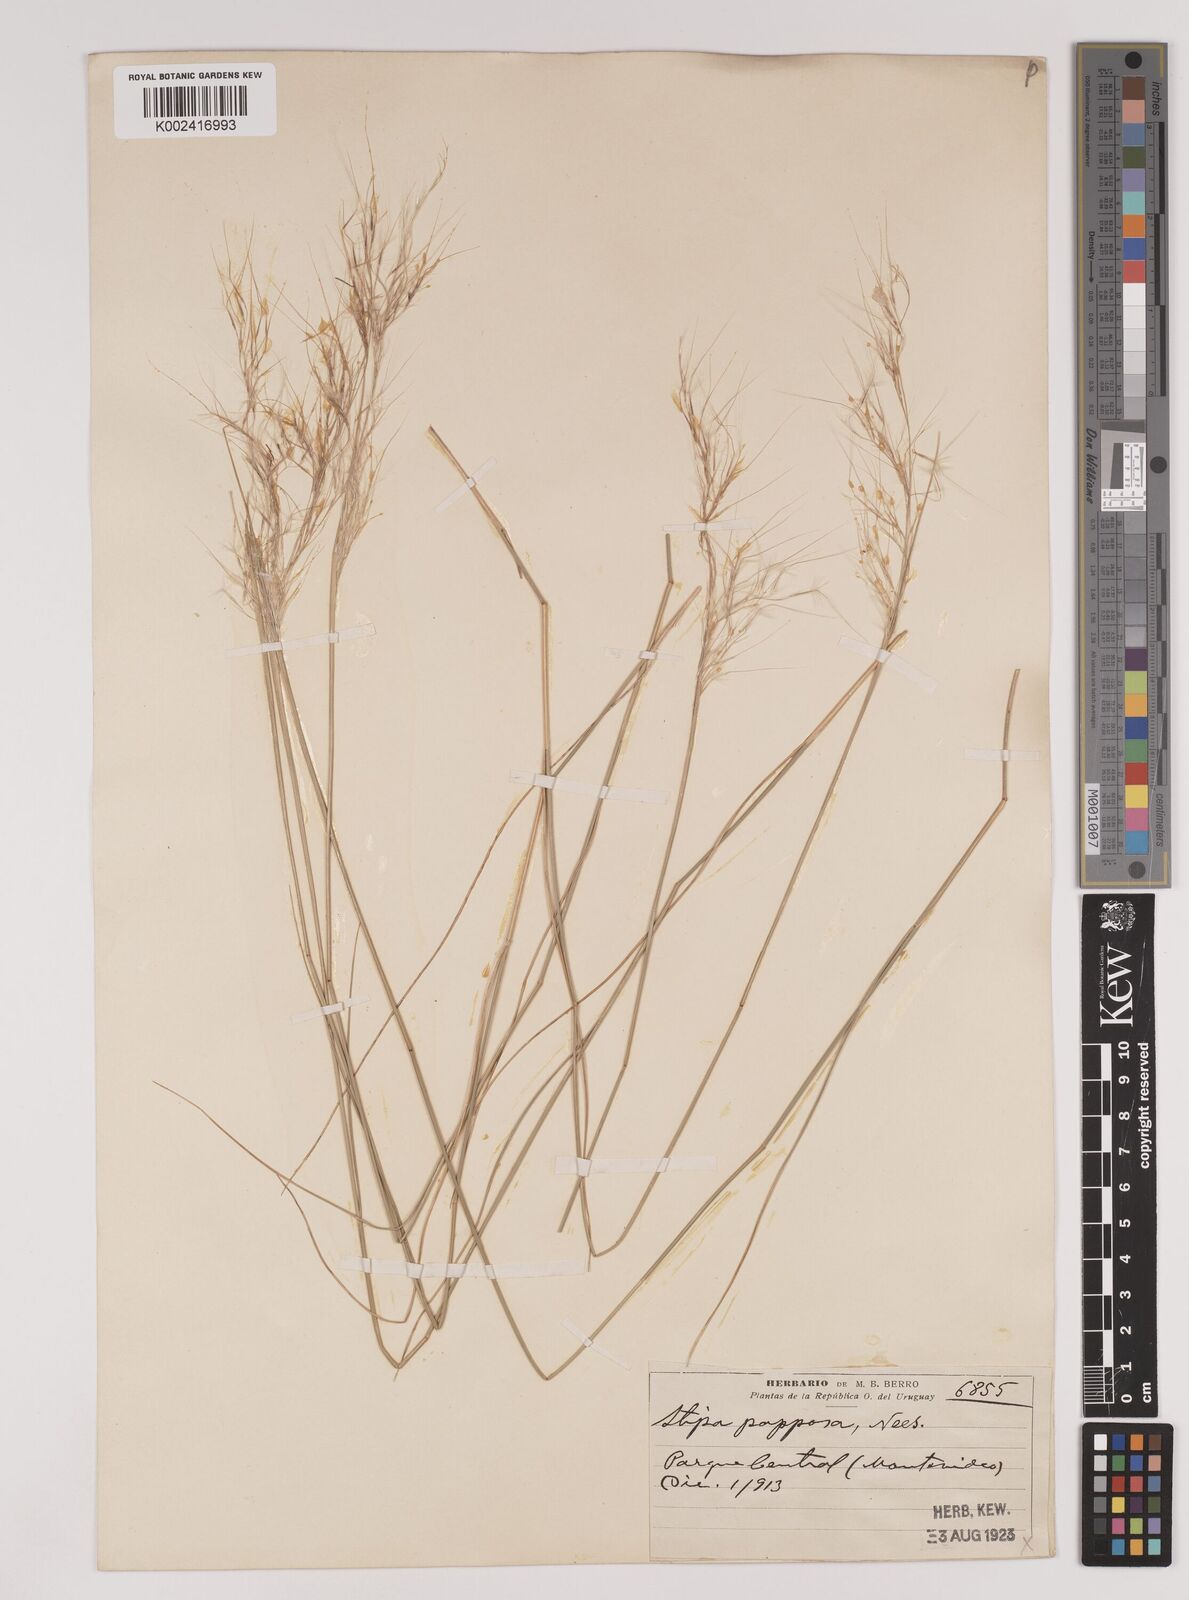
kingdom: Plantae
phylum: Tracheophyta
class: Liliopsida
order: Poales
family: Poaceae
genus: Jarava
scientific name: Jarava plumosa
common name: South american rice grass
